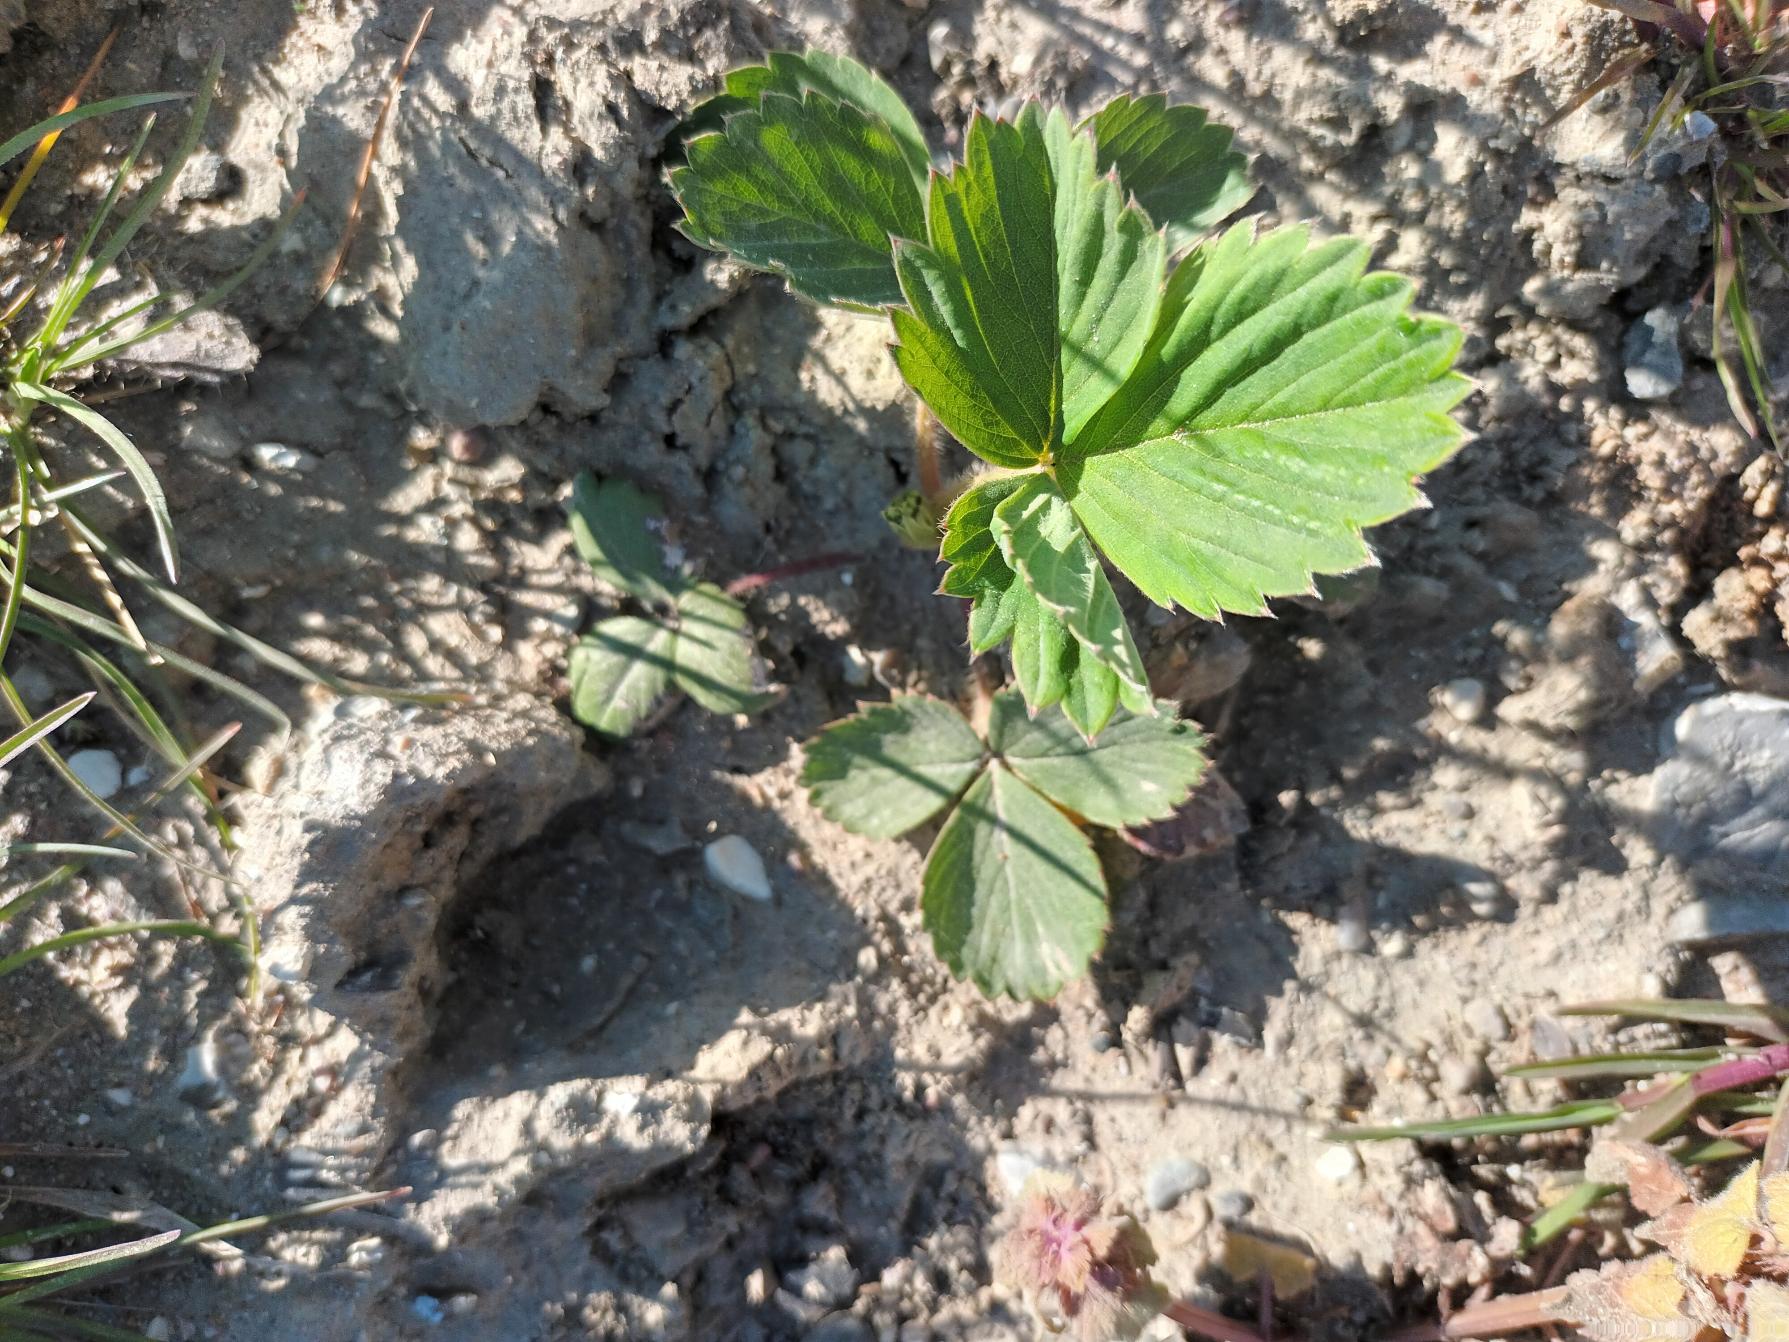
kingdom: Plantae
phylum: Tracheophyta
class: Magnoliopsida
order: Rosales
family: Rosaceae
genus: Fragaria
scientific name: Fragaria ananassa
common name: Have-jordbær
